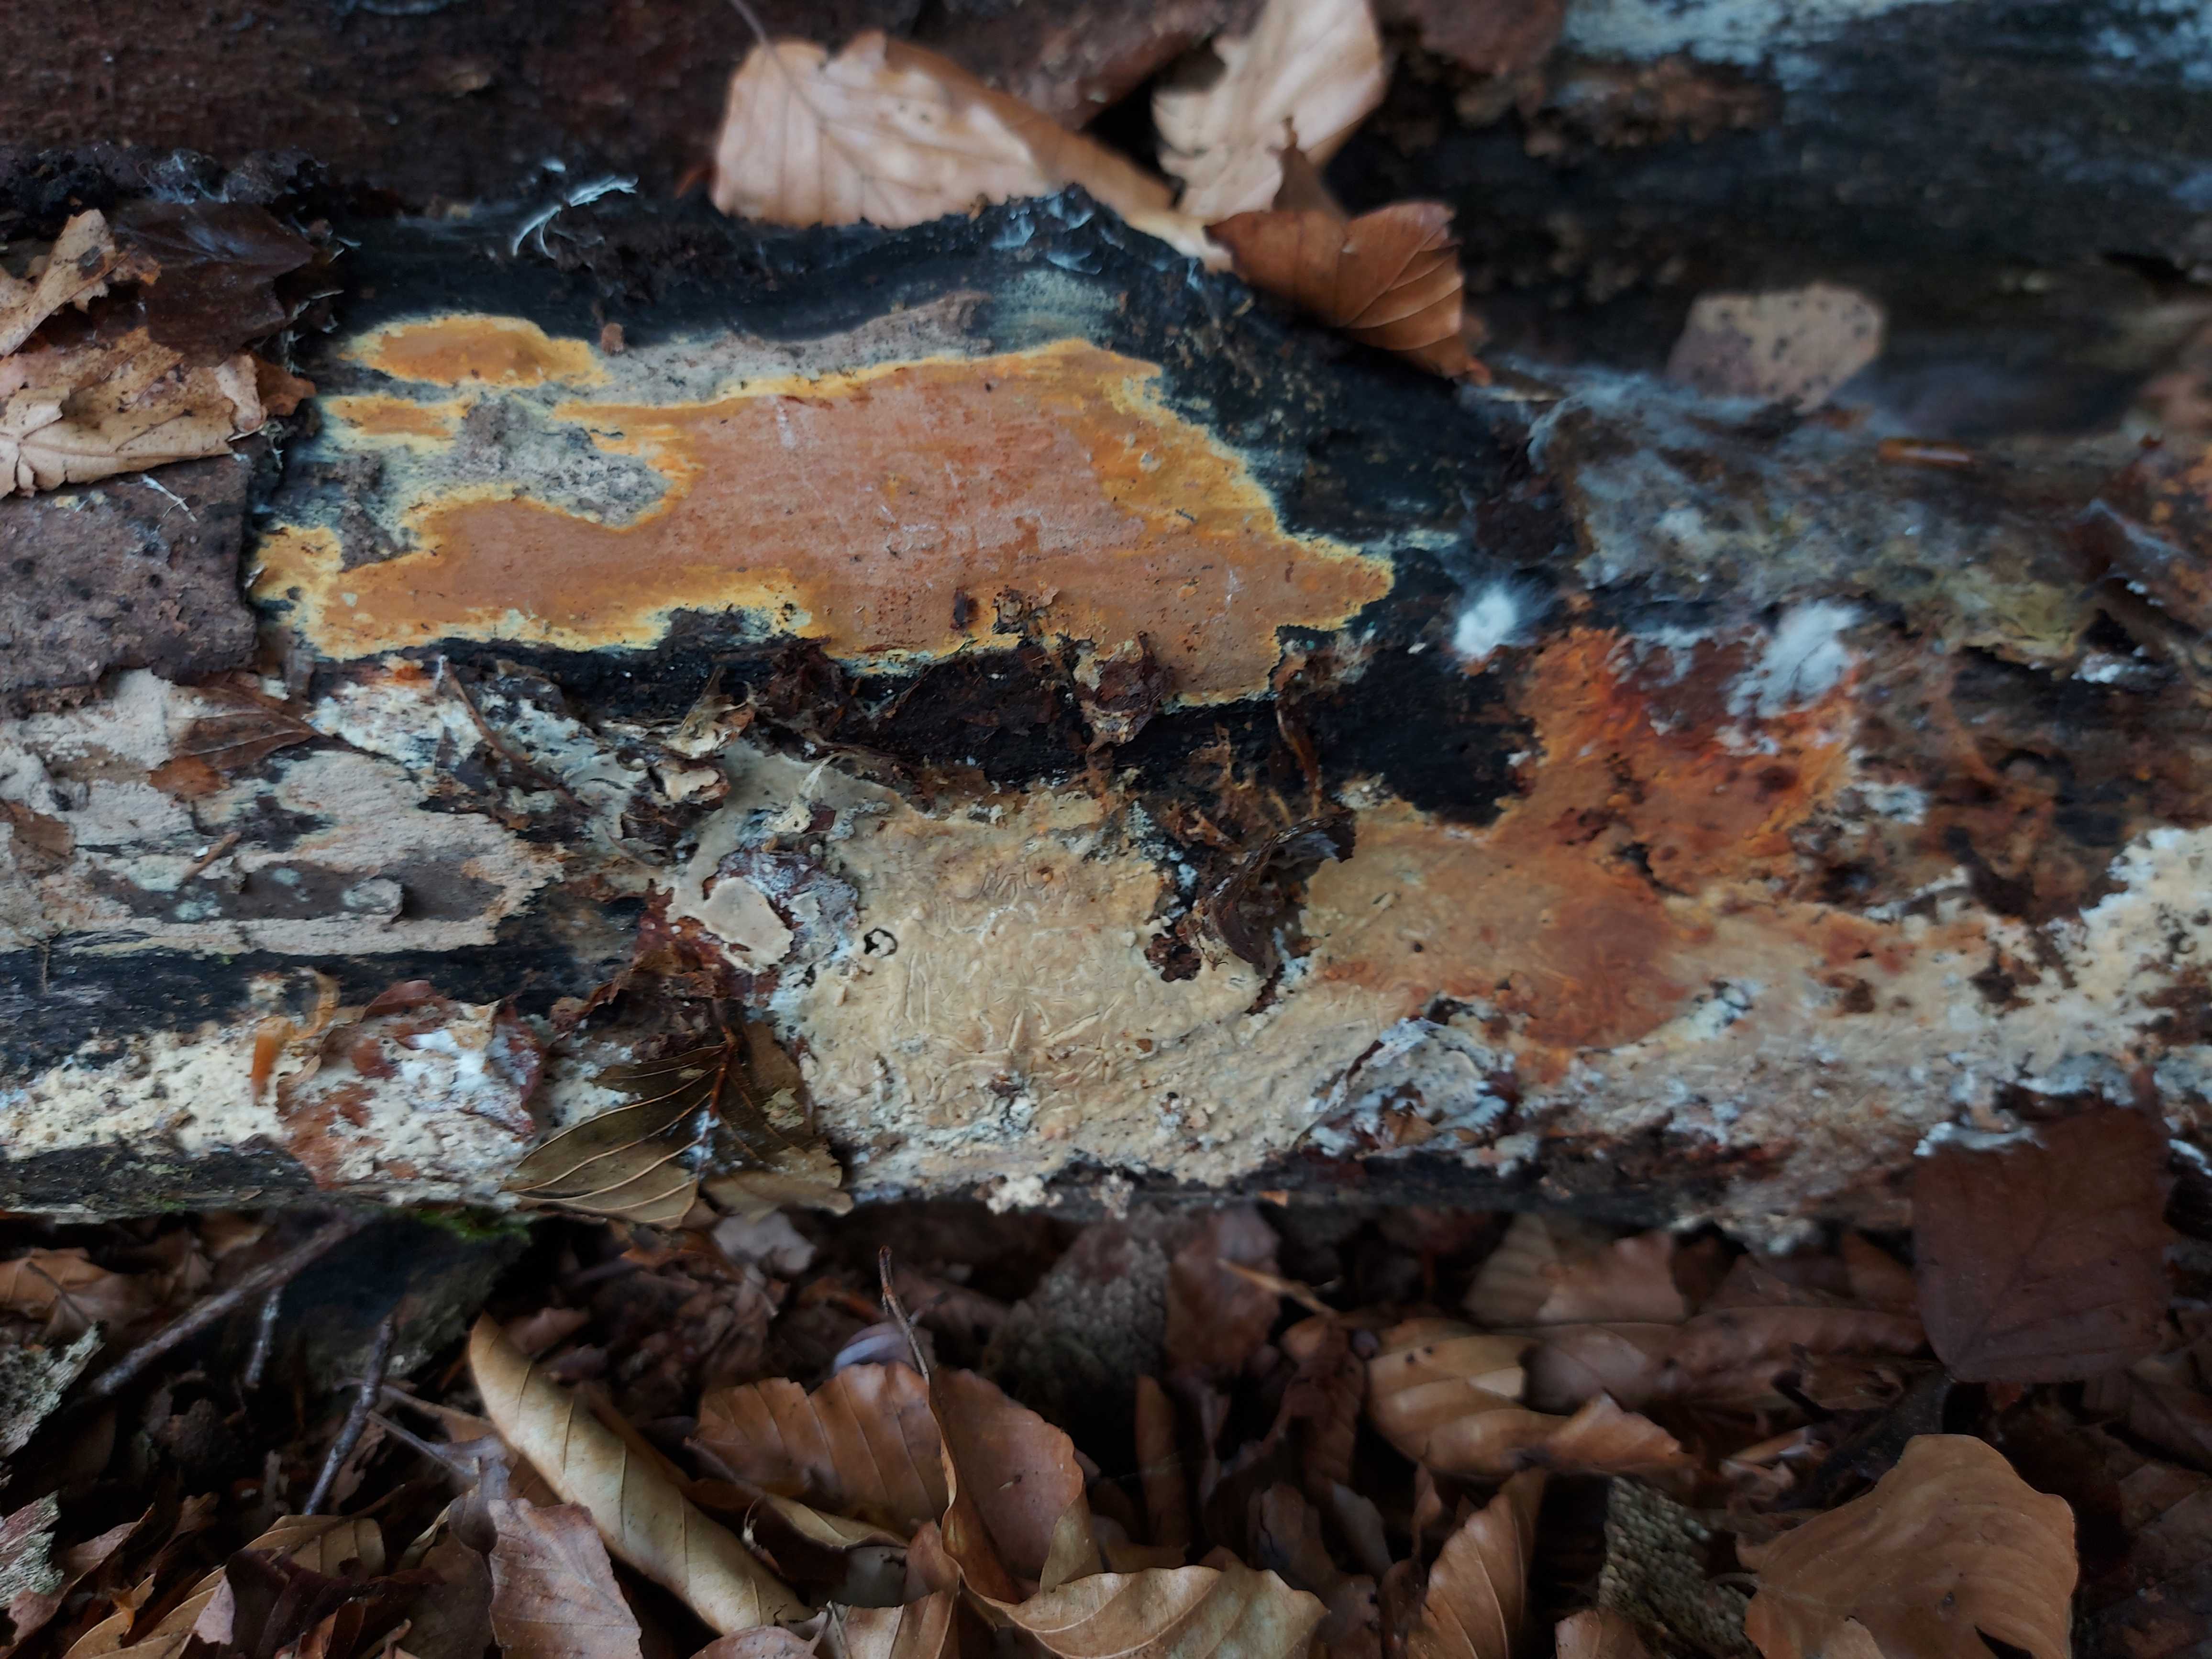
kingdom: Fungi
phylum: Ascomycota
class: Sordariomycetes
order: Xylariales
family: Hypoxylaceae
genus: Hypoxylon
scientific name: Hypoxylon
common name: kulbær
